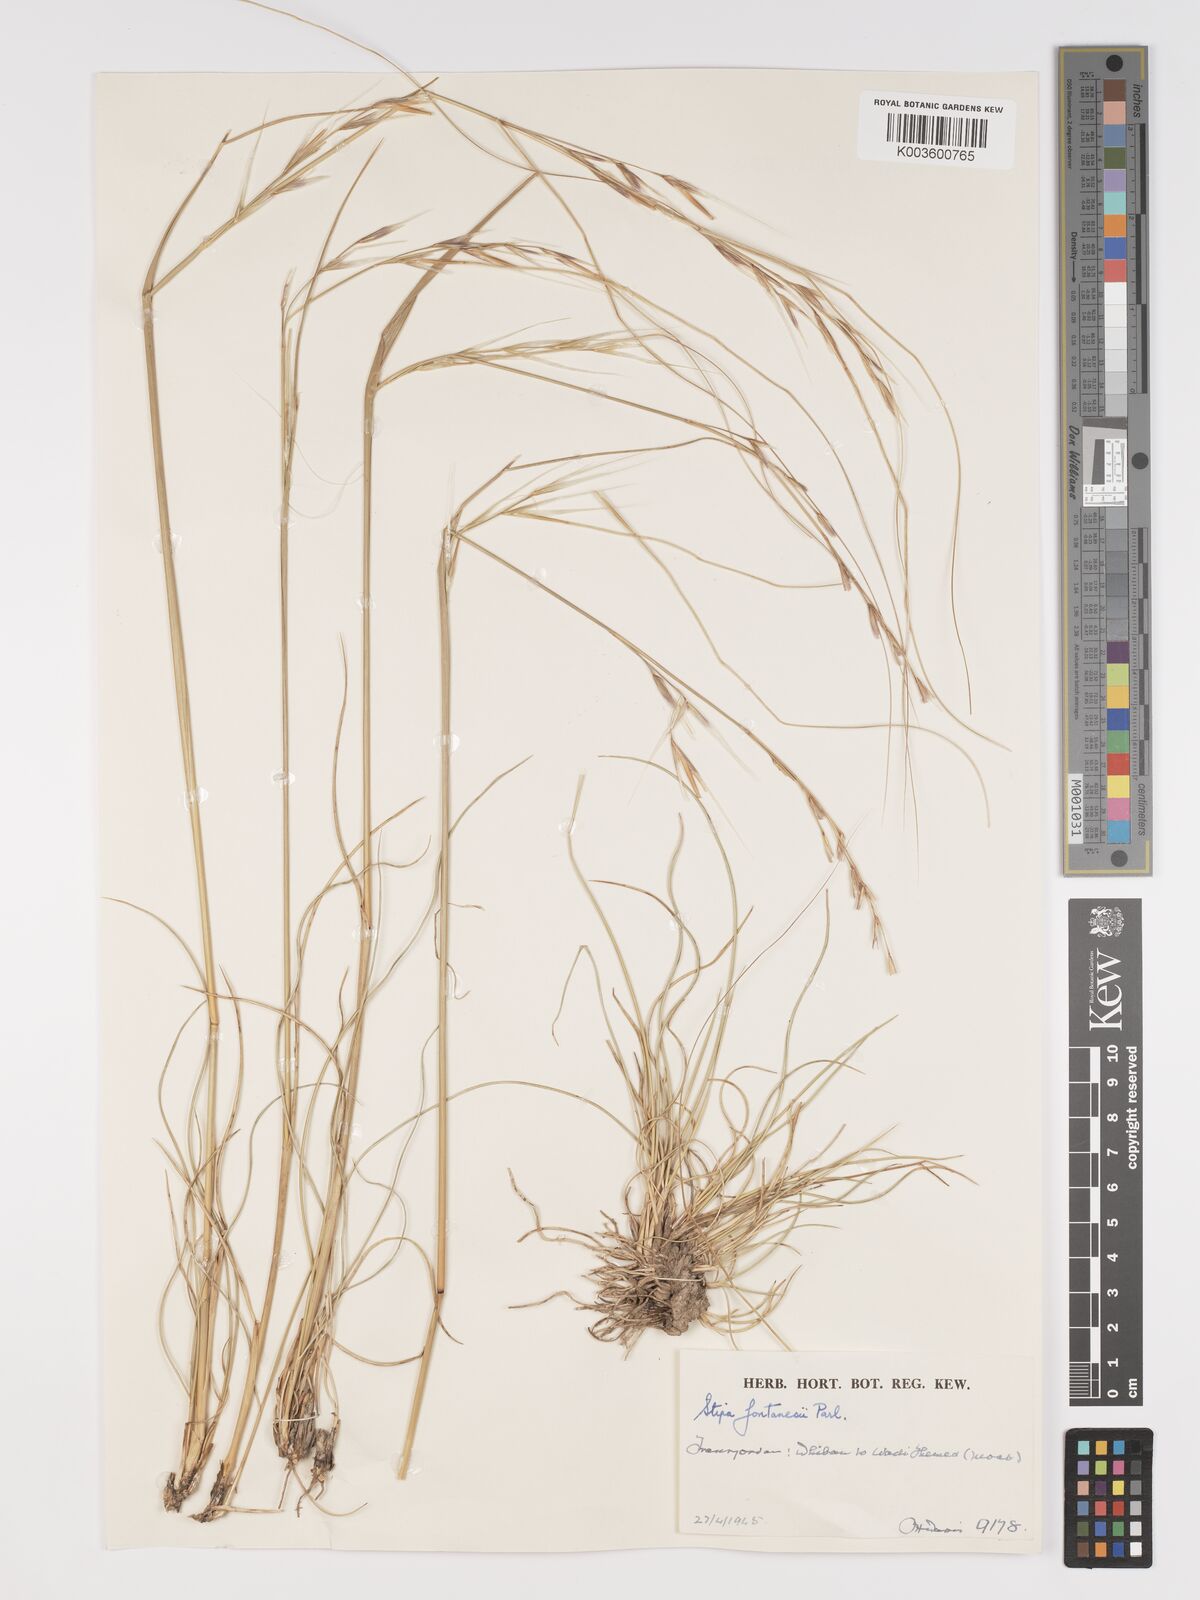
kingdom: Plantae
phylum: Tracheophyta
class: Liliopsida
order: Poales
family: Poaceae
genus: Stipa
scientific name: Stipa lagascae
